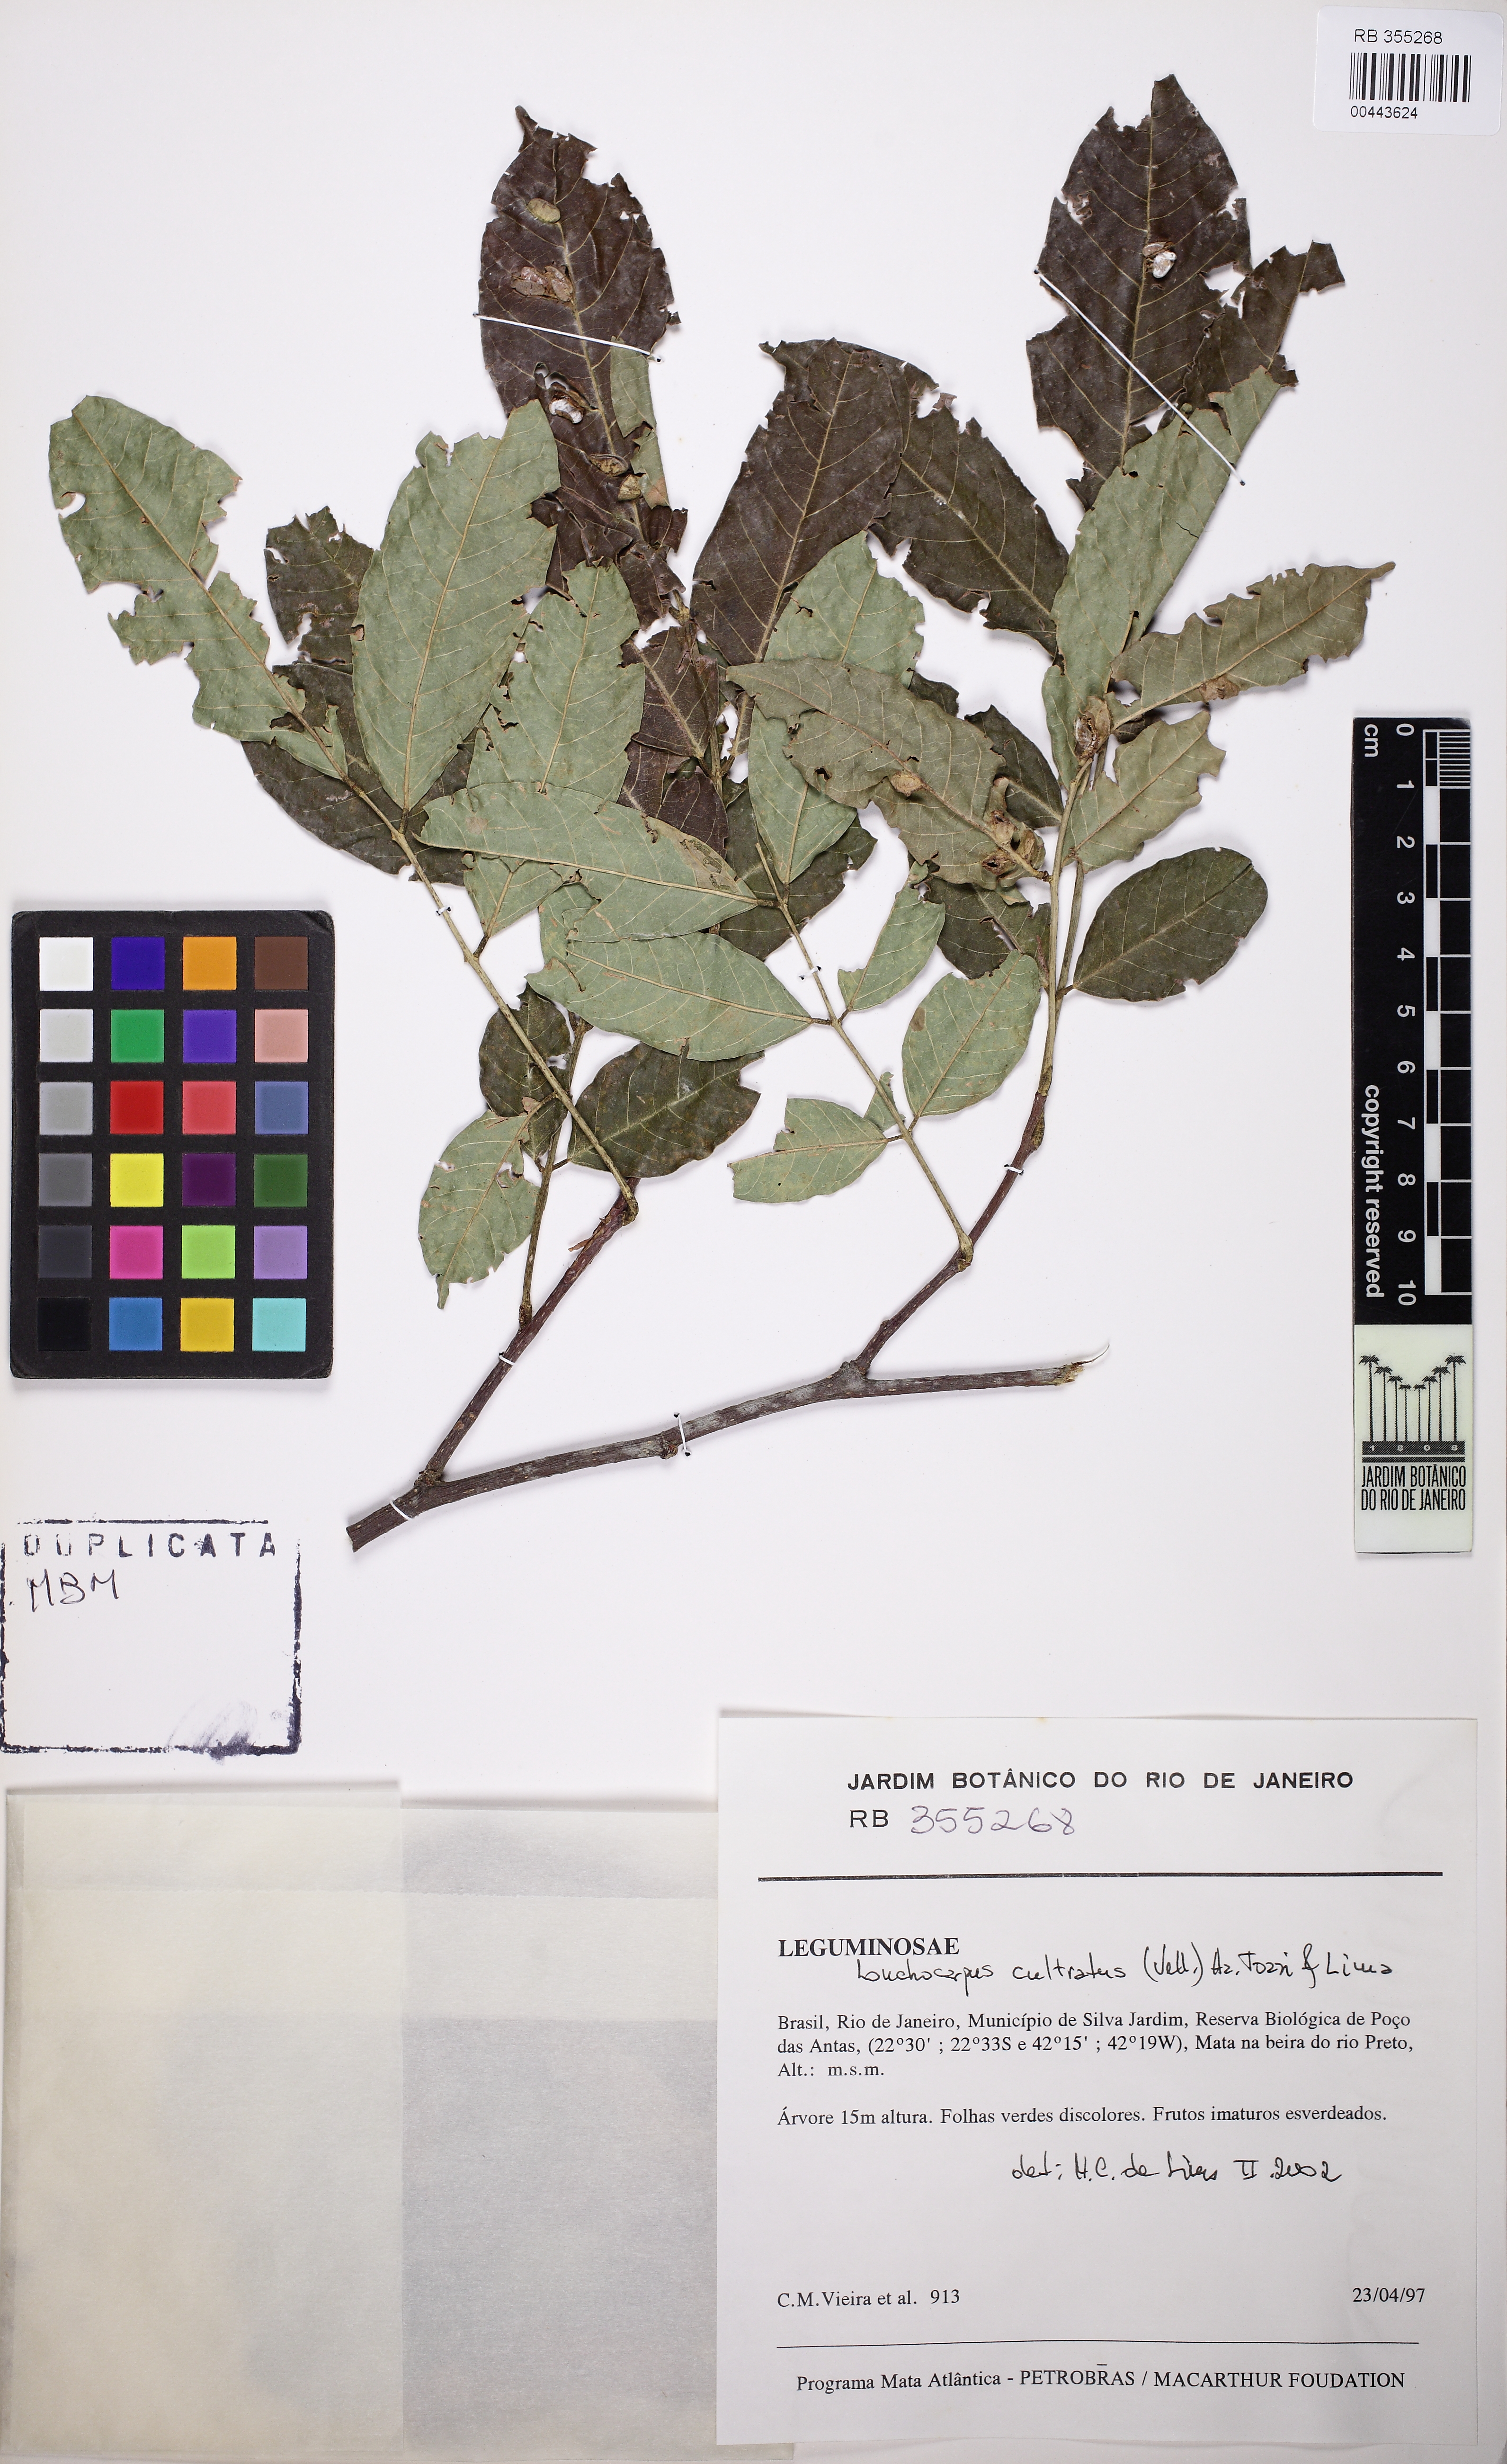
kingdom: Plantae
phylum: Tracheophyta
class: Magnoliopsida
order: Fabales
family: Fabaceae
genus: Lonchocarpus
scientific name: Lonchocarpus cultratus
